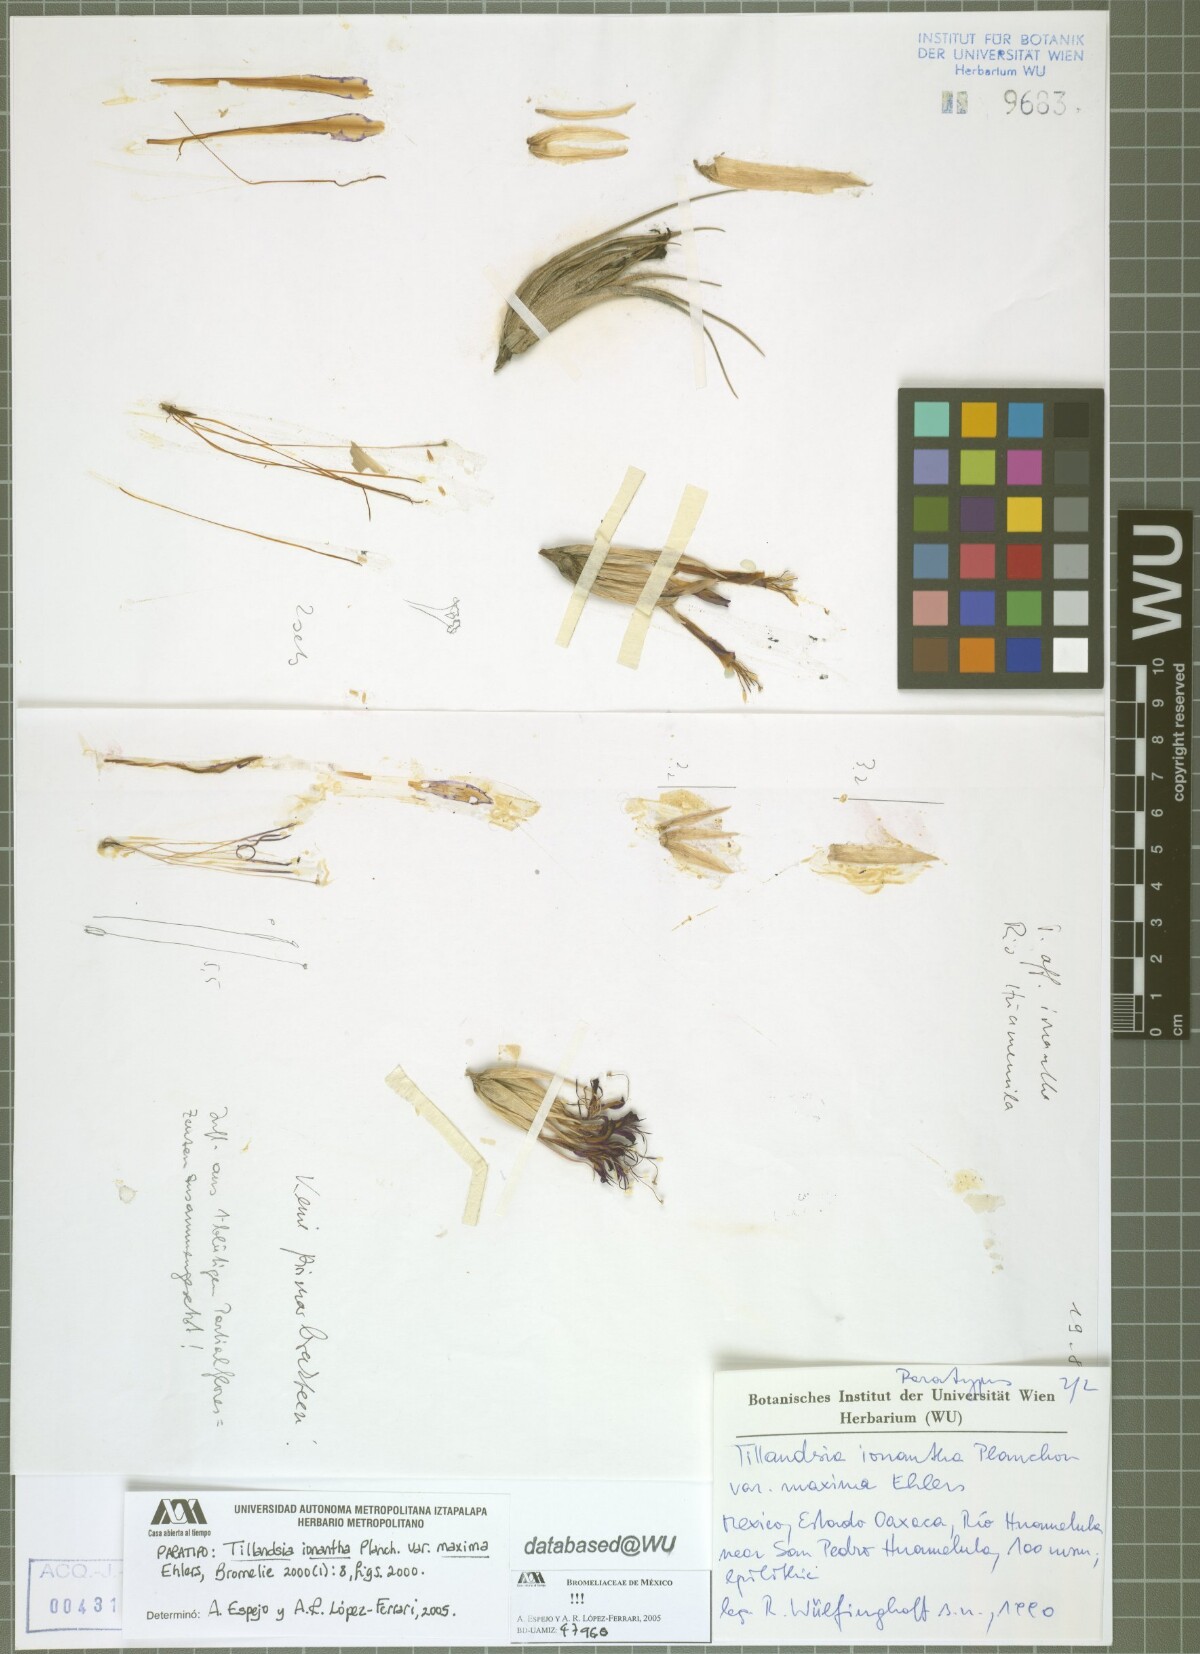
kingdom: Plantae
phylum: Tracheophyta
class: Liliopsida
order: Poales
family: Bromeliaceae
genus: Tillandsia
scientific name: Tillandsia ionantha
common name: Sky plant
